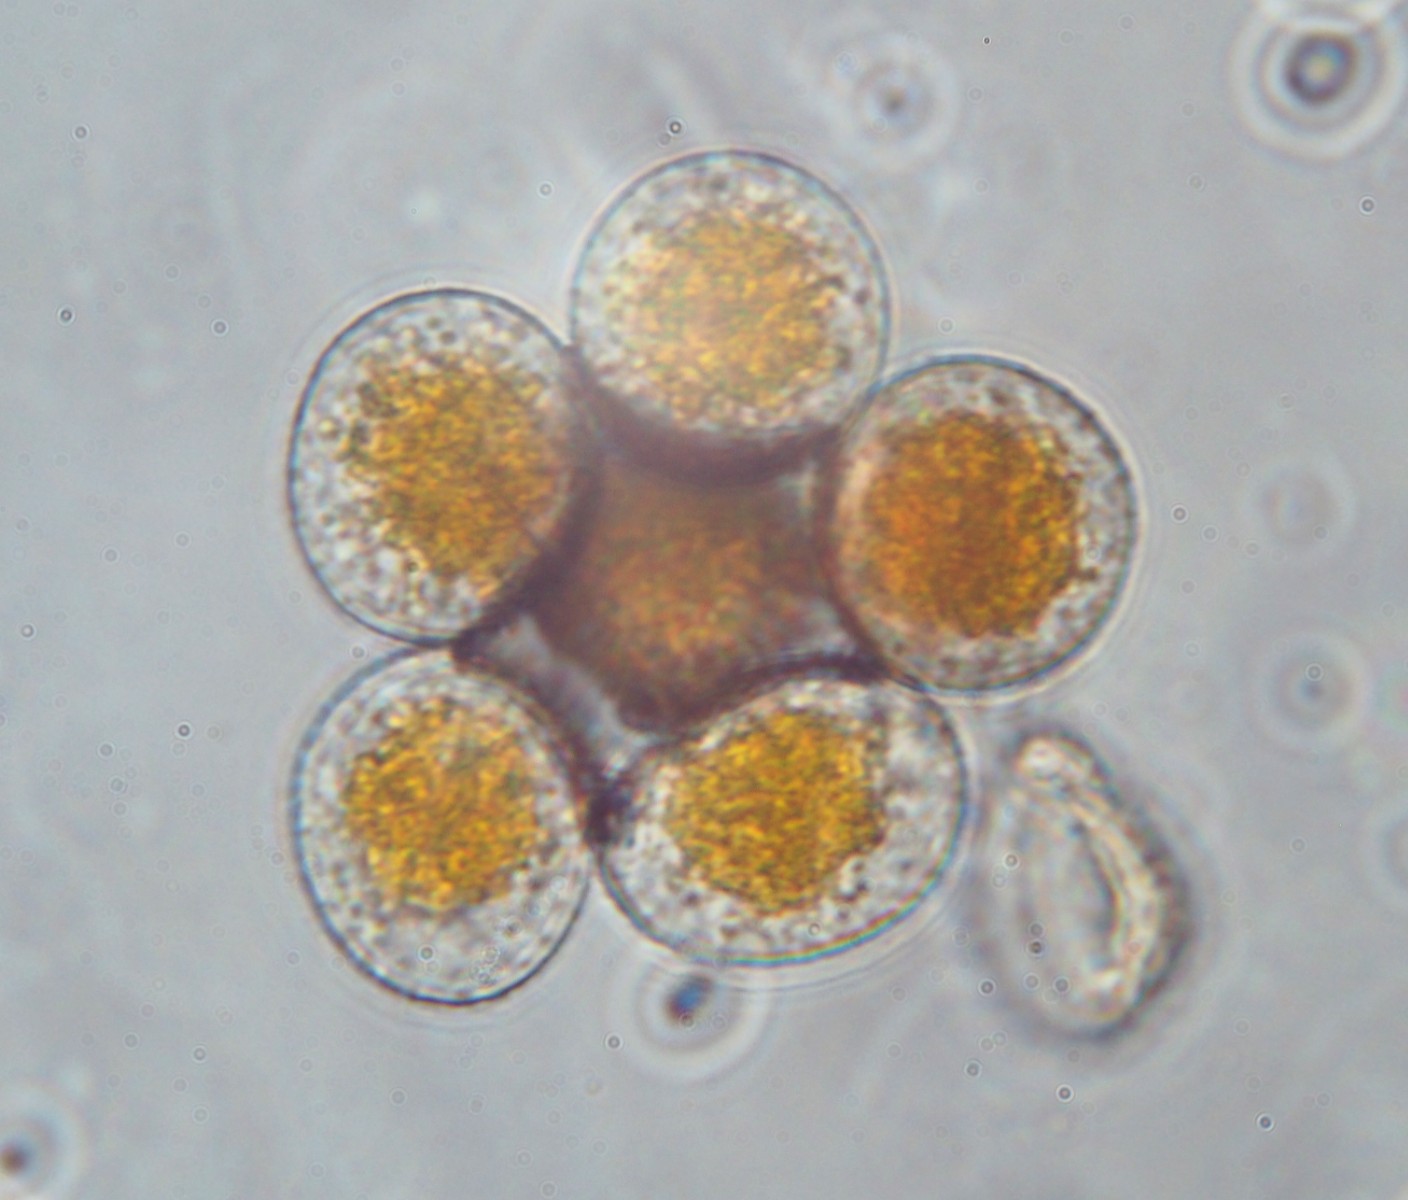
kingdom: Fungi
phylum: Basidiomycota
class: Pucciniomycetes
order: Pucciniales
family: Pucciniaceae
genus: Puccinia
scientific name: Puccinia coronata
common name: Crown rust
